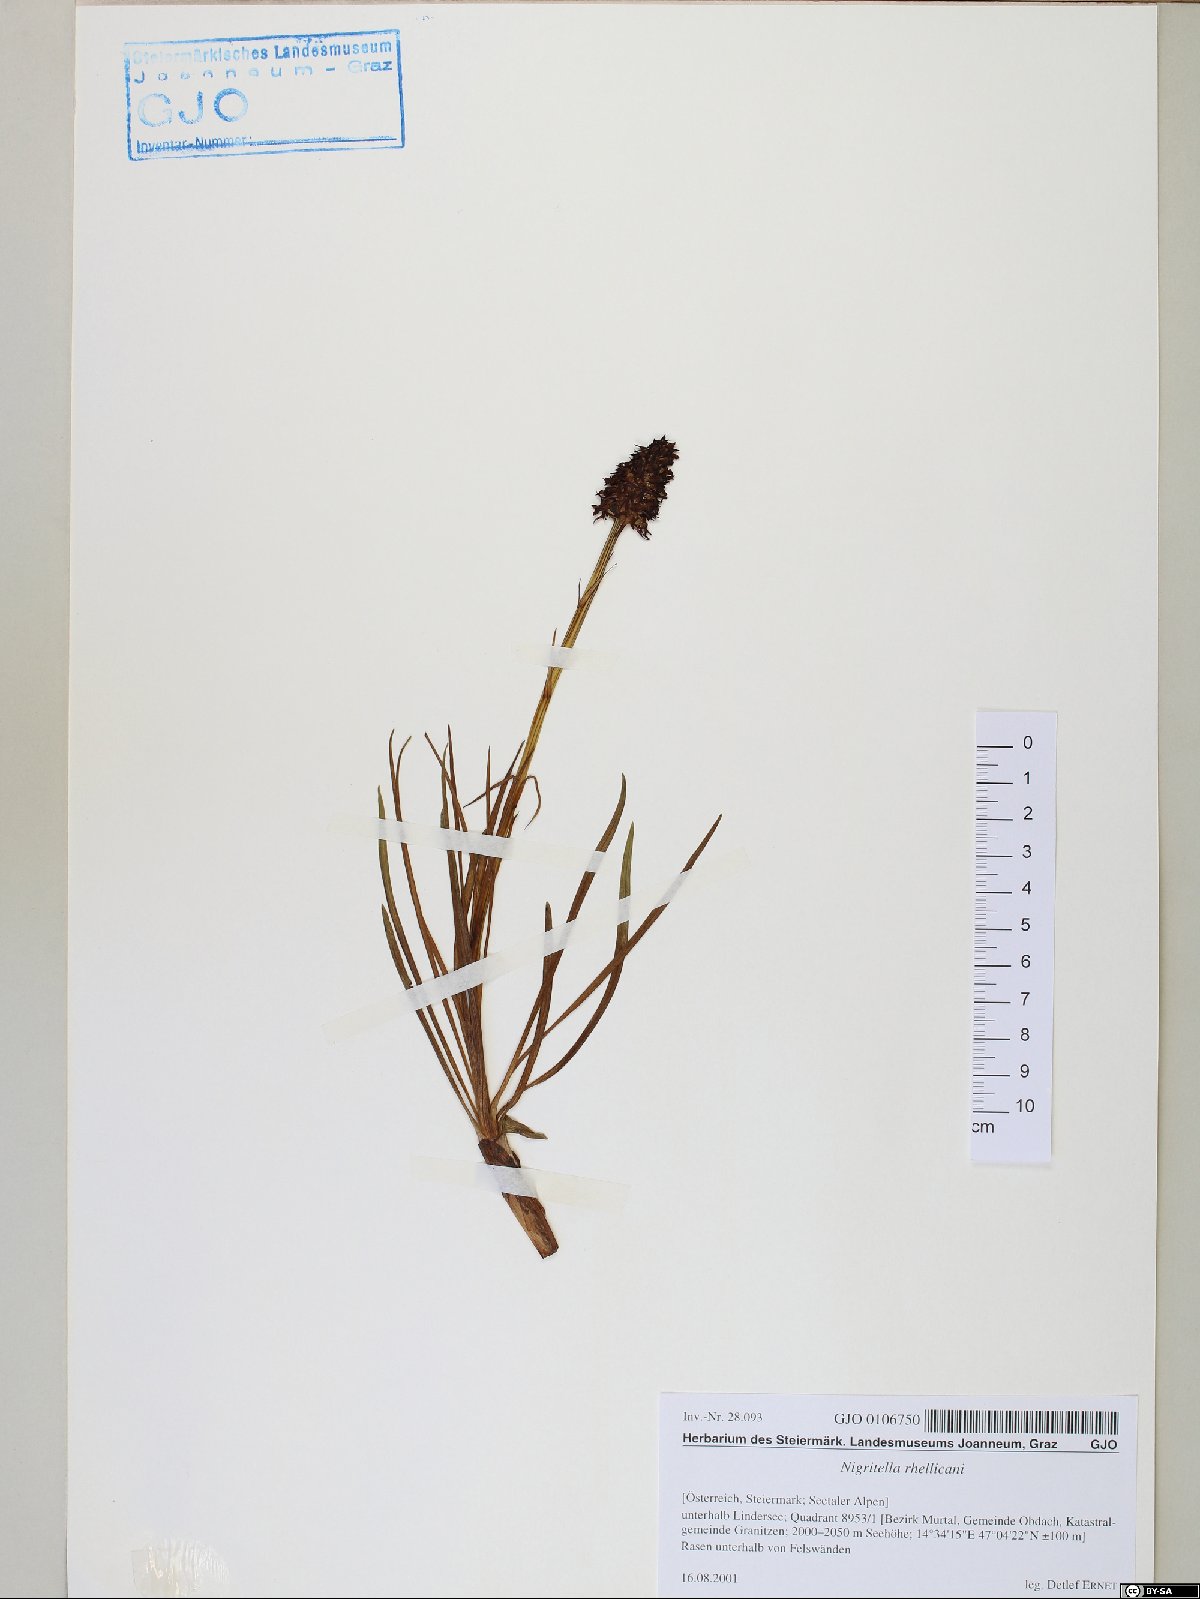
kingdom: Plantae
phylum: Tracheophyta
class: Liliopsida
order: Asparagales
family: Orchidaceae
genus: Gymnadenia
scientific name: Gymnadenia rhellicani
